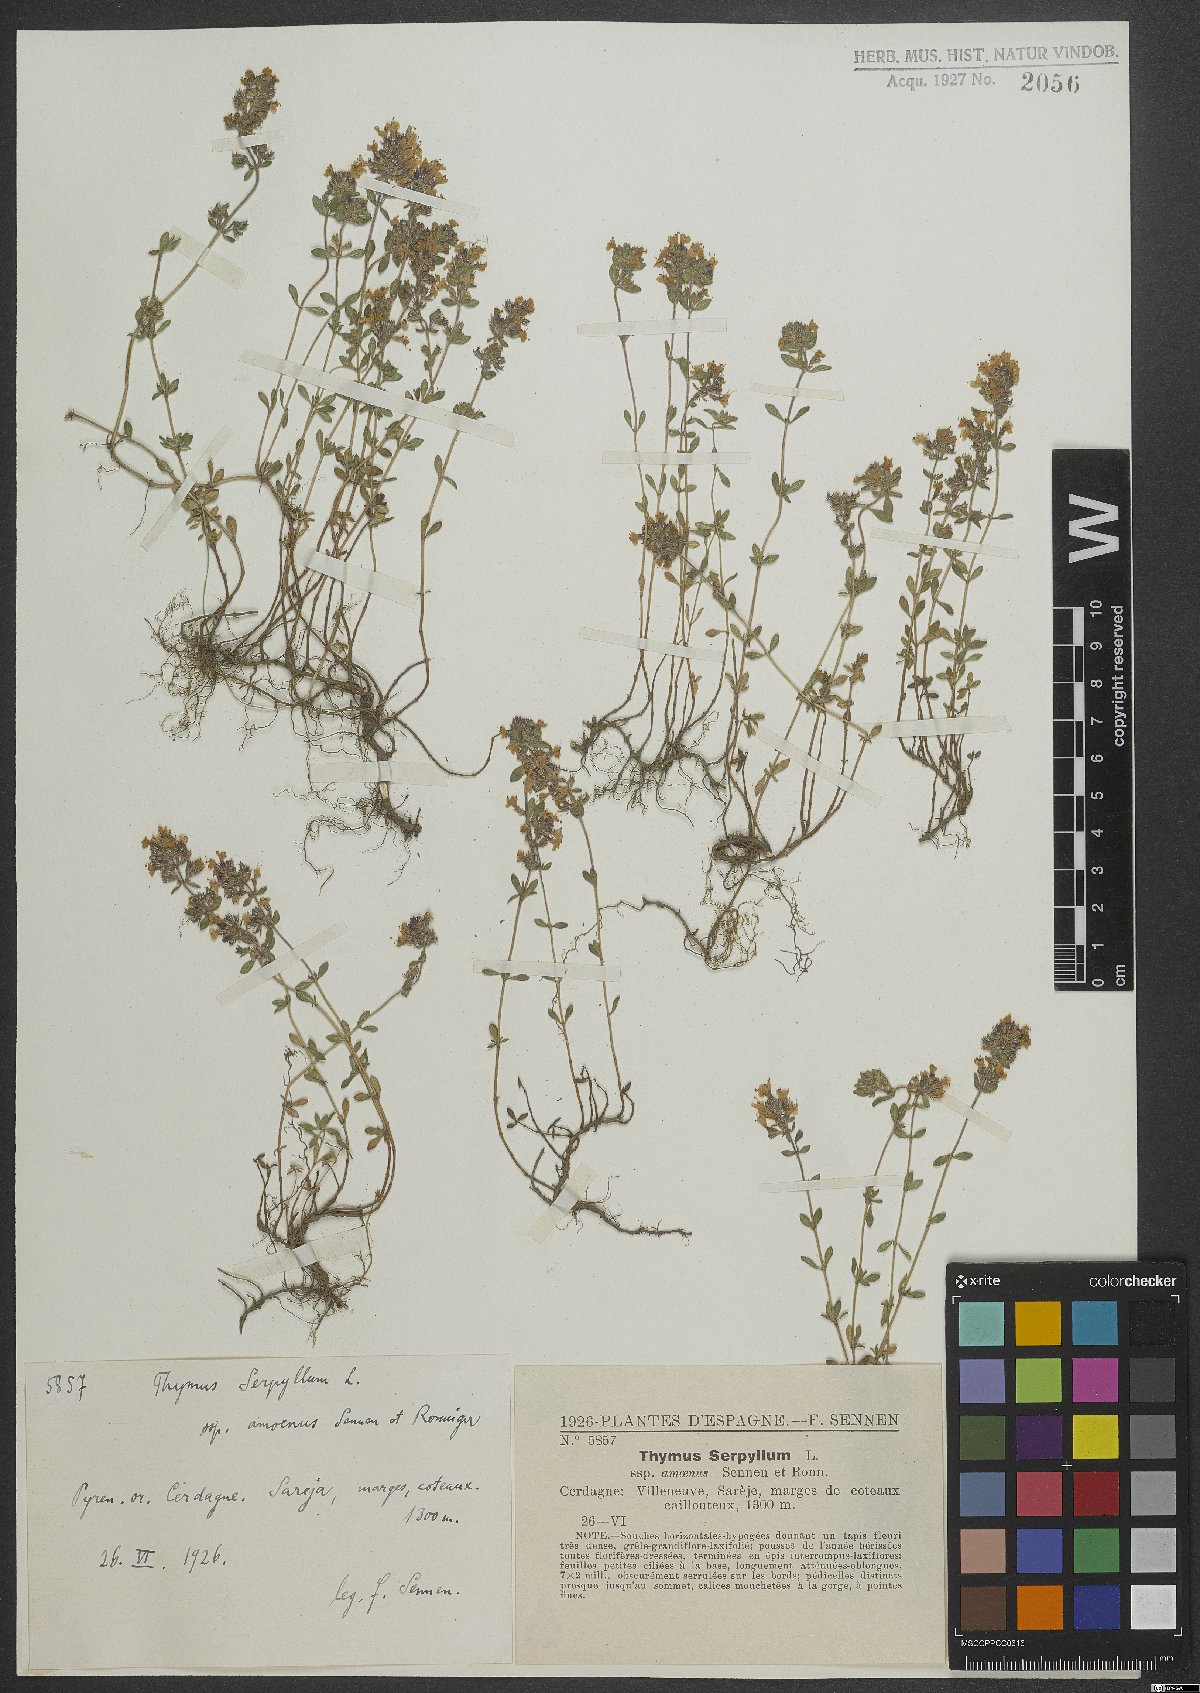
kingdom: Plantae
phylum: Tracheophyta
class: Magnoliopsida
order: Lamiales
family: Lamiaceae
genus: Thymus
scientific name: Thymus serpyllum
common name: Breckland thyme
